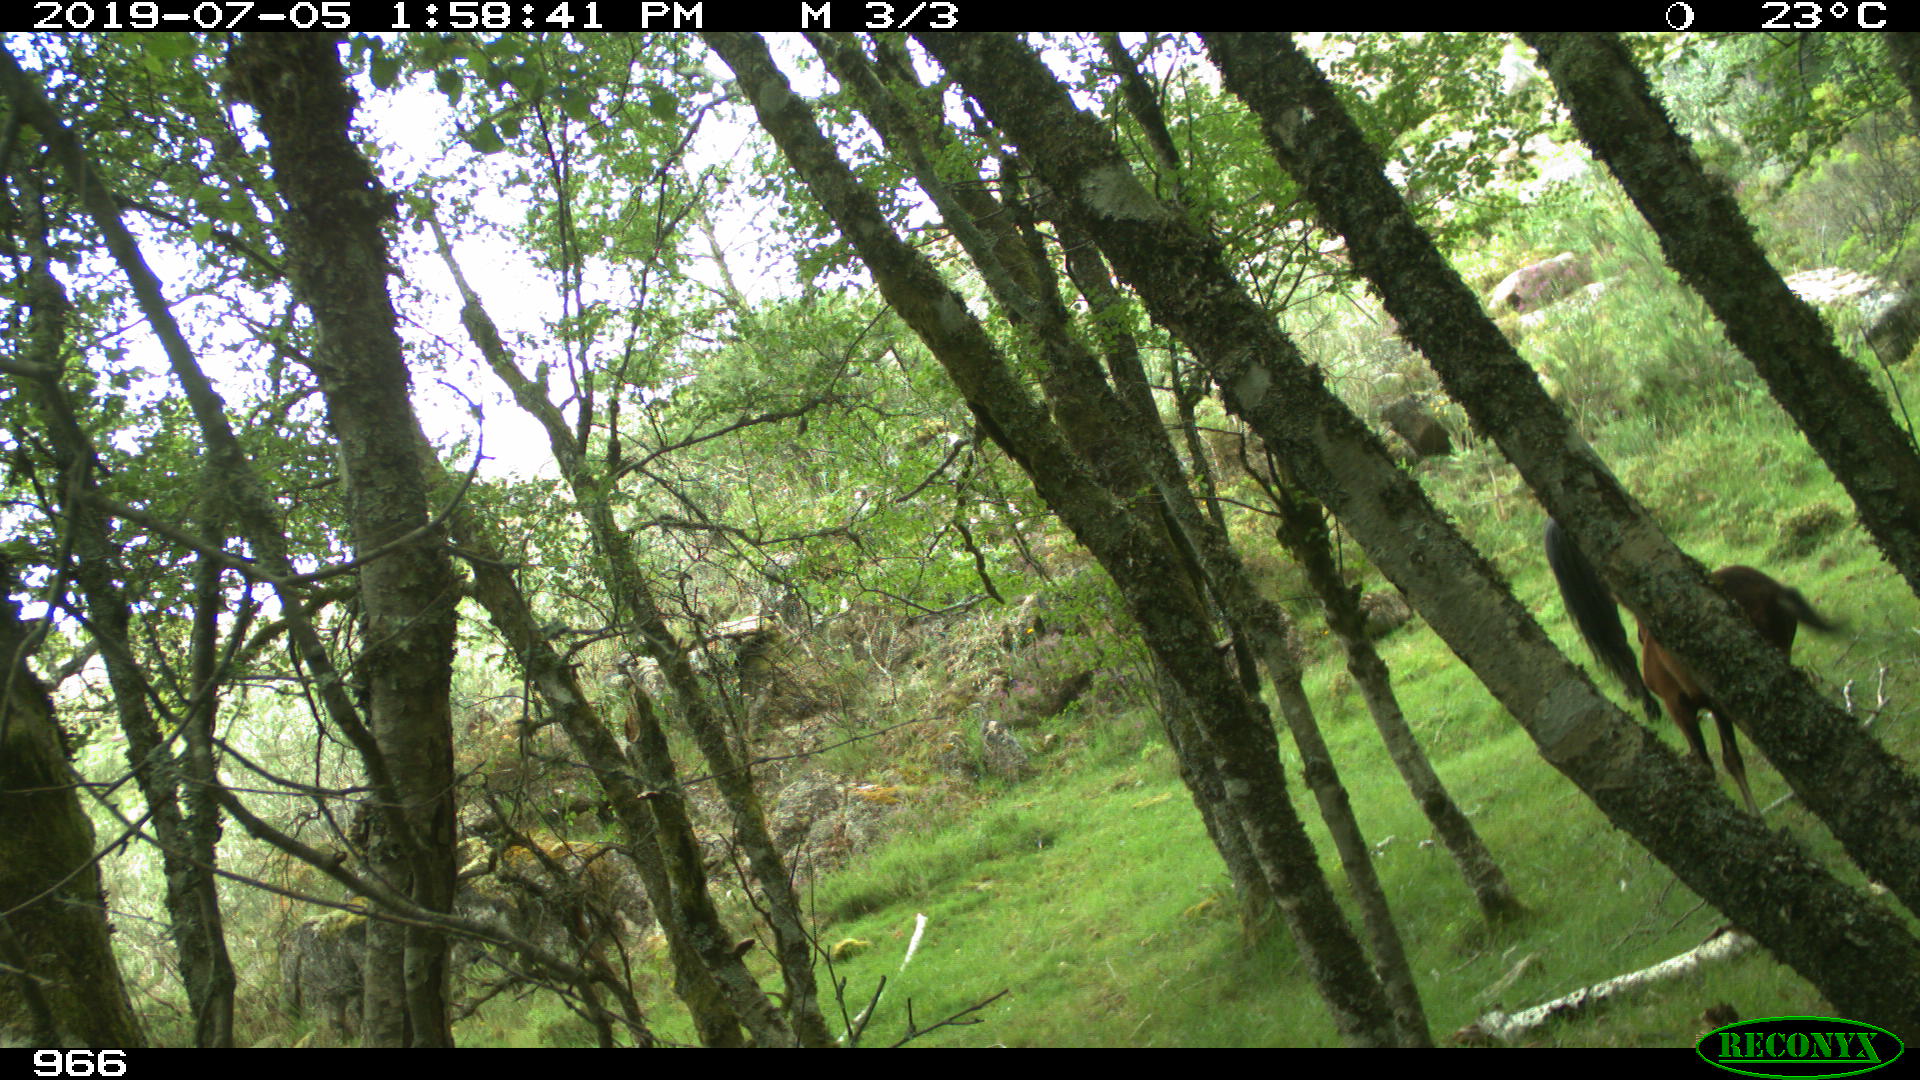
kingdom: Animalia
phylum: Chordata
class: Mammalia
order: Perissodactyla
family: Equidae
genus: Equus
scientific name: Equus caballus
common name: Horse
